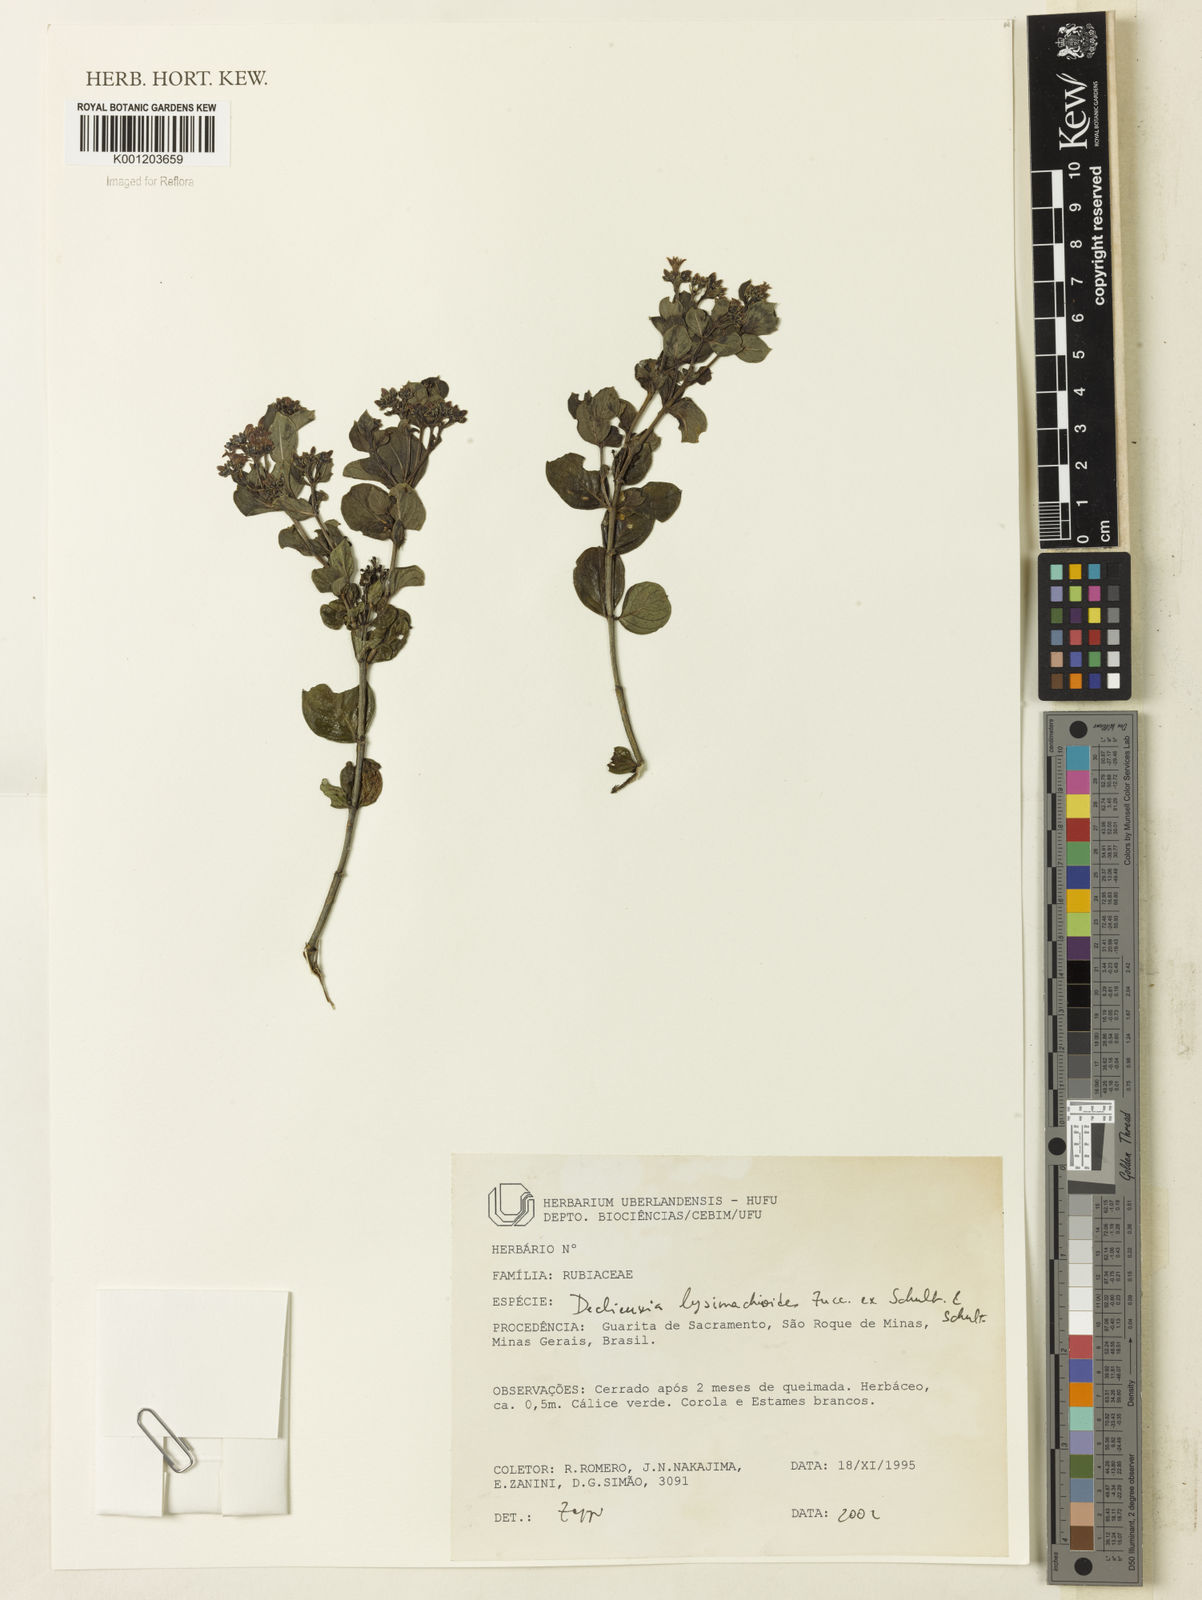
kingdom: Plantae
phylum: Tracheophyta
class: Magnoliopsida
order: Gentianales
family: Rubiaceae
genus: Declieuxia
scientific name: Declieuxia
